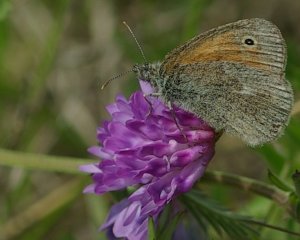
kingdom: Animalia
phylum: Arthropoda
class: Insecta
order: Lepidoptera
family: Nymphalidae
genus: Coenonympha
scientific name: Coenonympha tullia
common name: Large Heath
